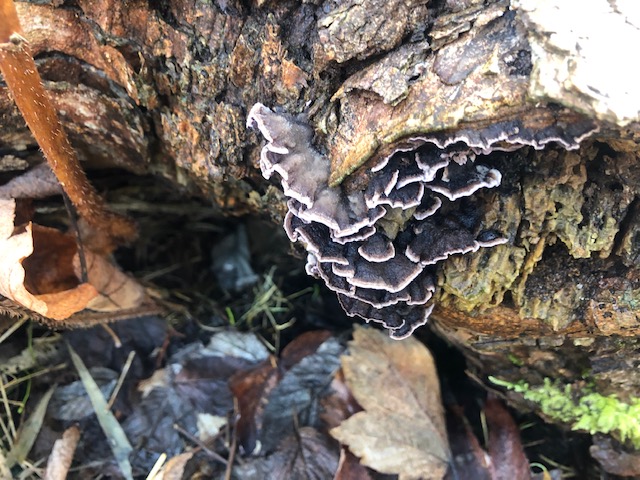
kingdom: Fungi
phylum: Basidiomycota
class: Agaricomycetes
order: Agaricales
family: Cyphellaceae
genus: Chondrostereum
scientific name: Chondrostereum
